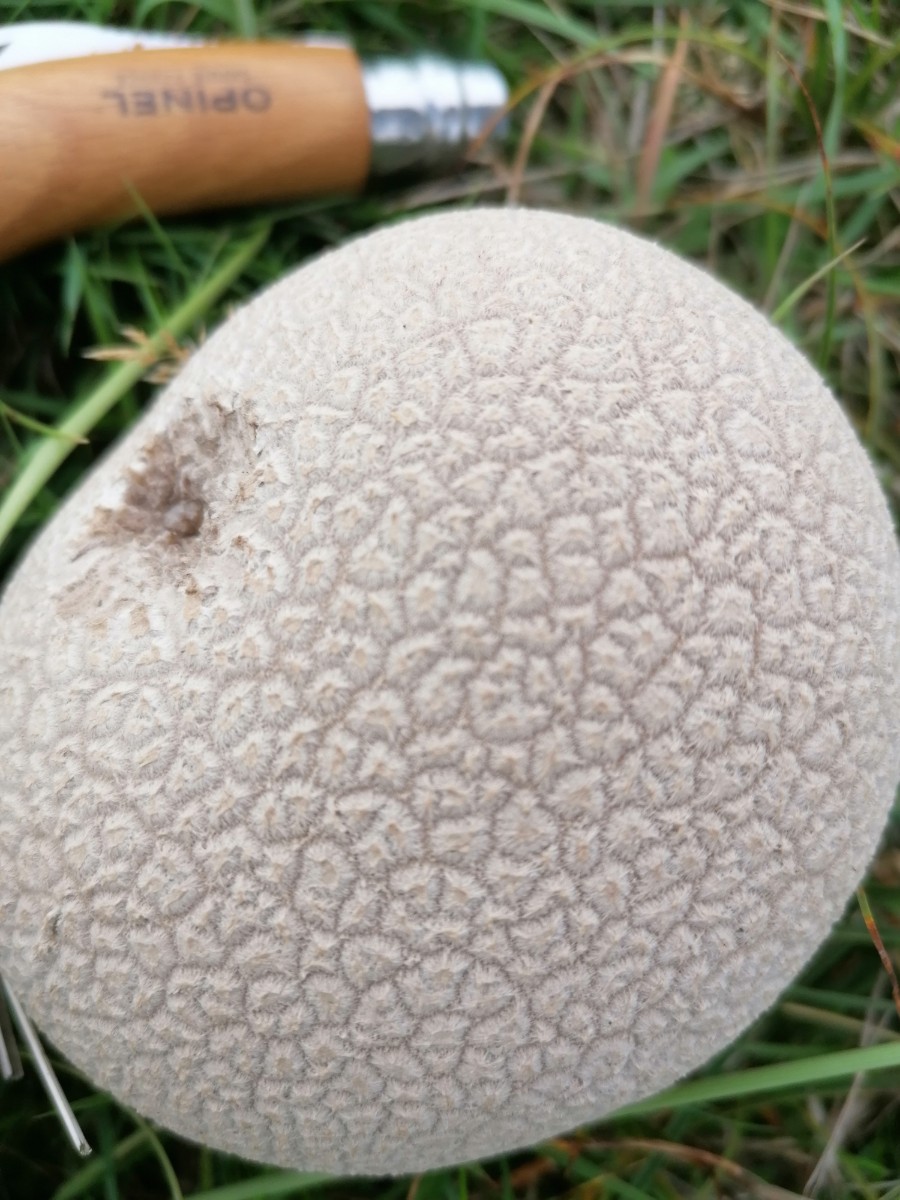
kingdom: Fungi
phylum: Basidiomycota
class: Agaricomycetes
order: Agaricales
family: Lycoperdaceae
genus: Bovistella
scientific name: Bovistella utriformis
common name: skællet støvbold
